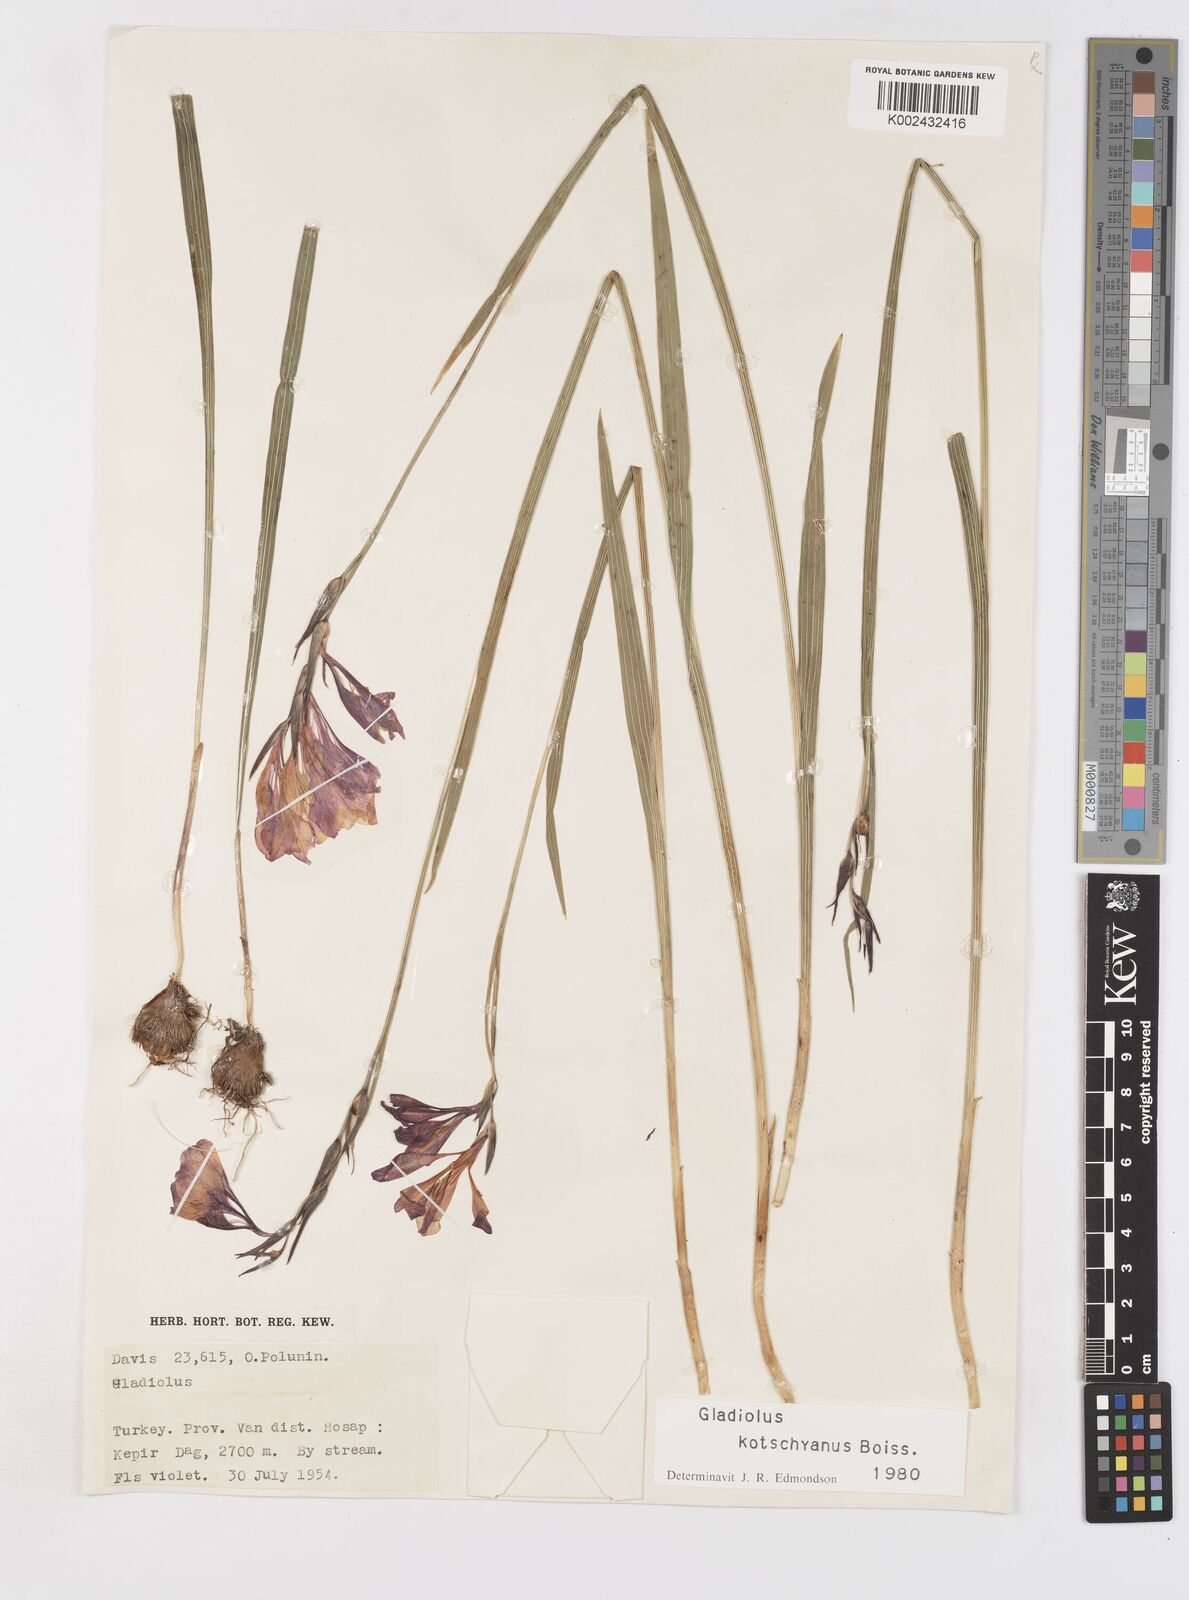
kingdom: Plantae
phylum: Tracheophyta
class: Liliopsida
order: Asparagales
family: Iridaceae
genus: Gladiolus
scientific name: Gladiolus kotschyanus
